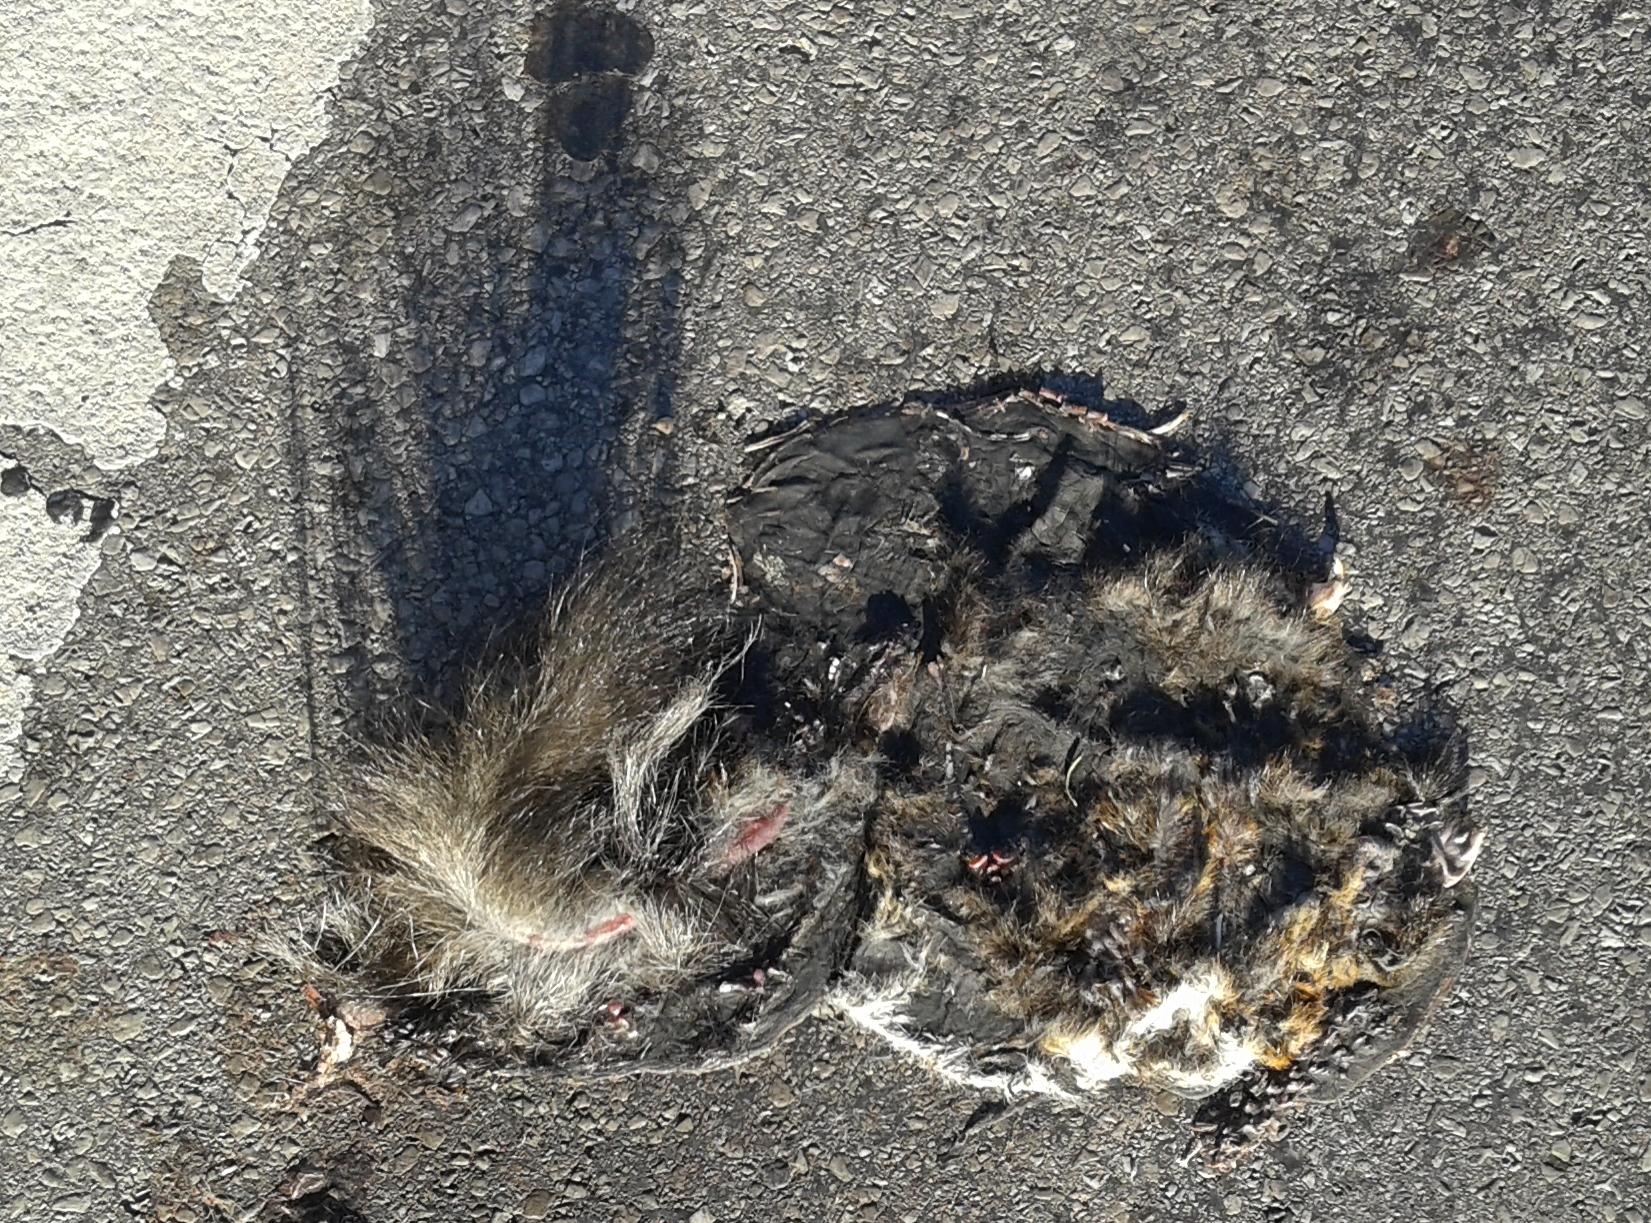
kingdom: Animalia
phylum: Chordata
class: Mammalia
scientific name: Mammalia
